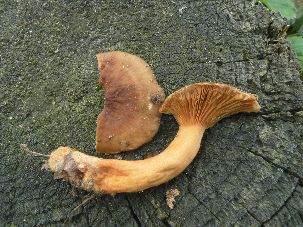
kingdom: Fungi
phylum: Basidiomycota
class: Agaricomycetes
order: Russulales
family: Russulaceae
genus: Lactarius
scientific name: Lactarius aurantiacus
